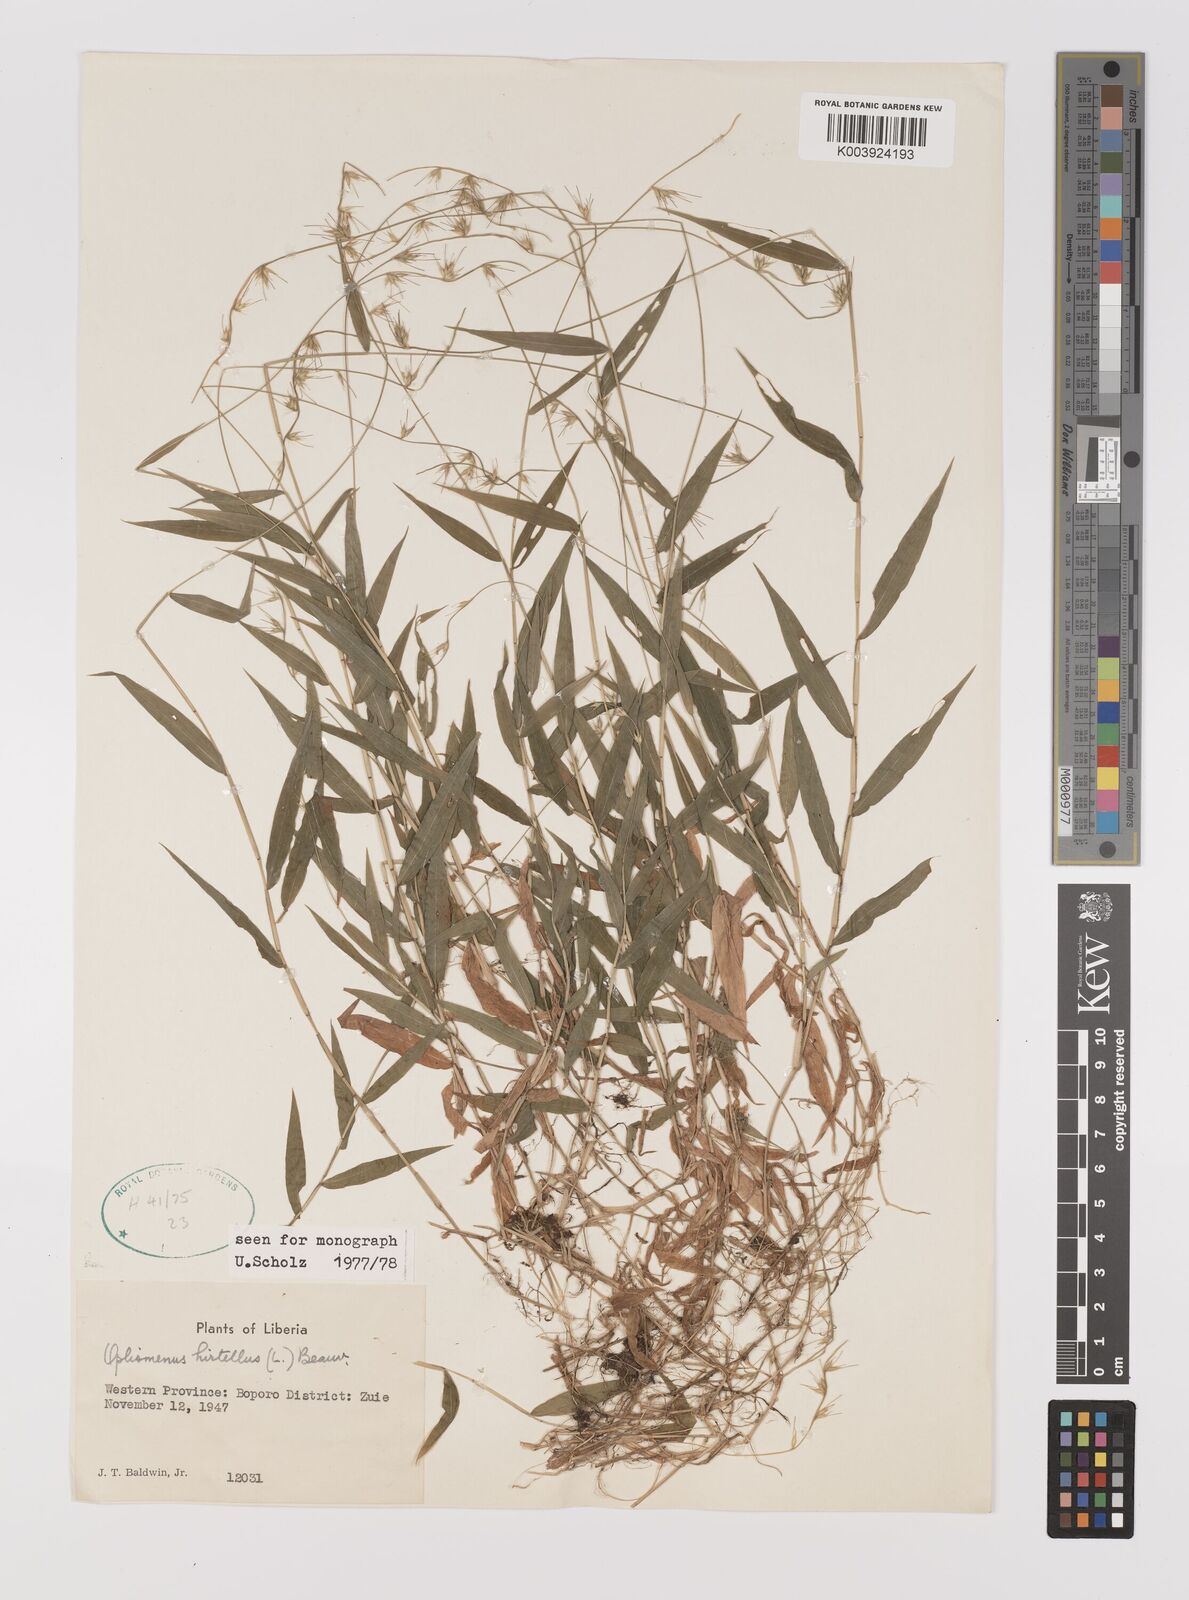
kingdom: Plantae
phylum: Tracheophyta
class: Liliopsida
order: Poales
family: Poaceae
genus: Oplismenus
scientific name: Oplismenus hirtellus
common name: Basketgrass
